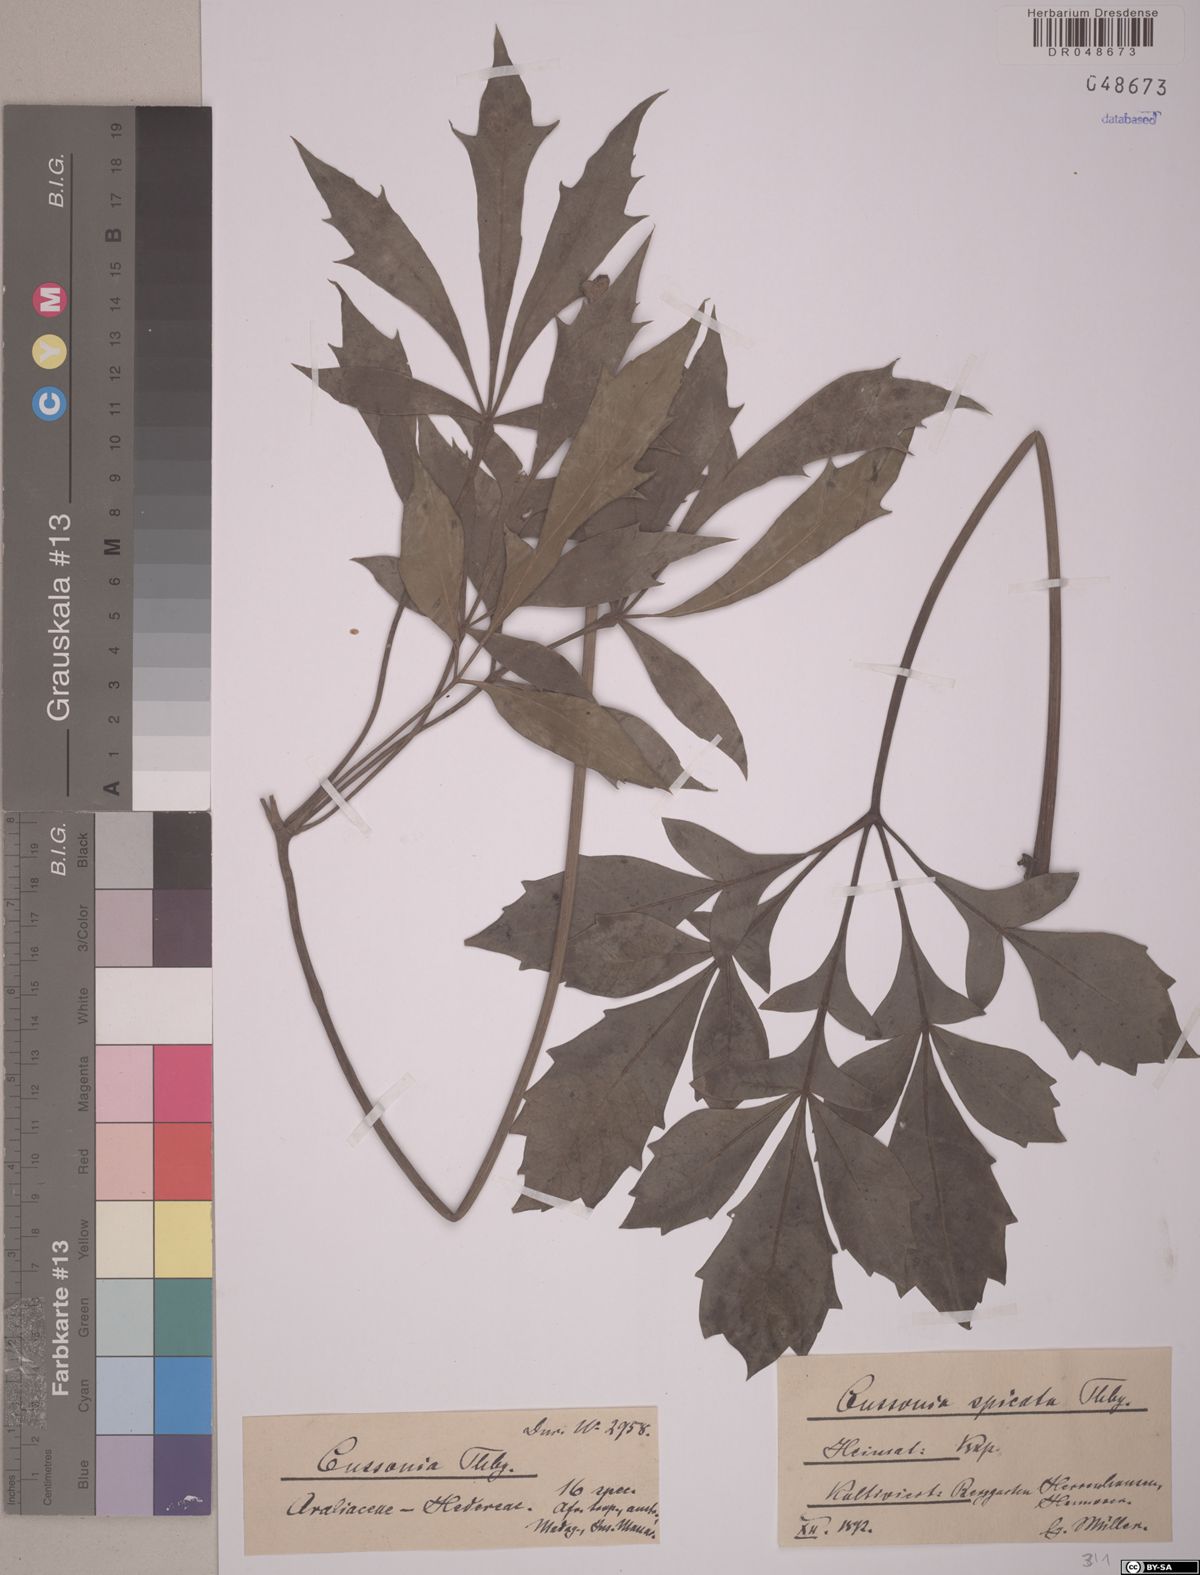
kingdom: Plantae
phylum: Tracheophyta
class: Magnoliopsida
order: Apiales
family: Araliaceae
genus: Cussonia
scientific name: Cussonia spicata
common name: Common cabbagetree
